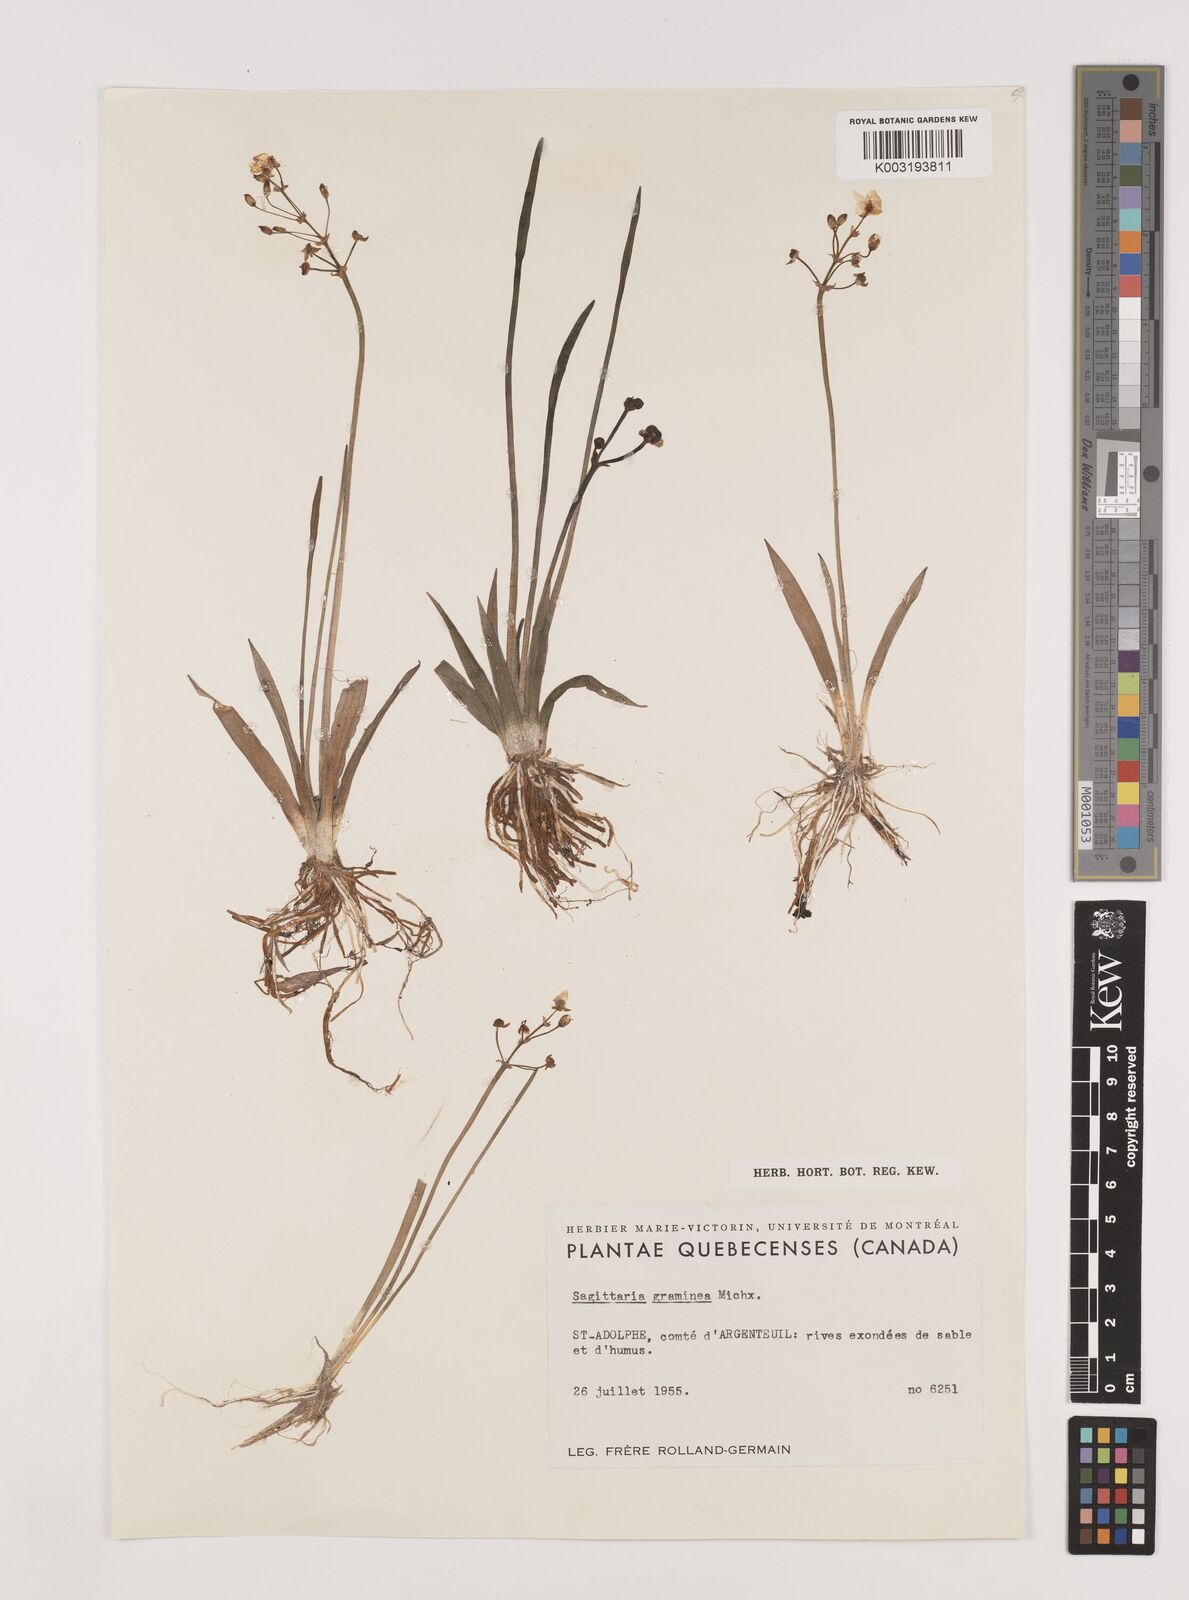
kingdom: Plantae
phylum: Tracheophyta
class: Liliopsida
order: Alismatales
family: Alismataceae
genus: Sagittaria
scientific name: Sagittaria graminea
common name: Grass-leaved arrowhead
